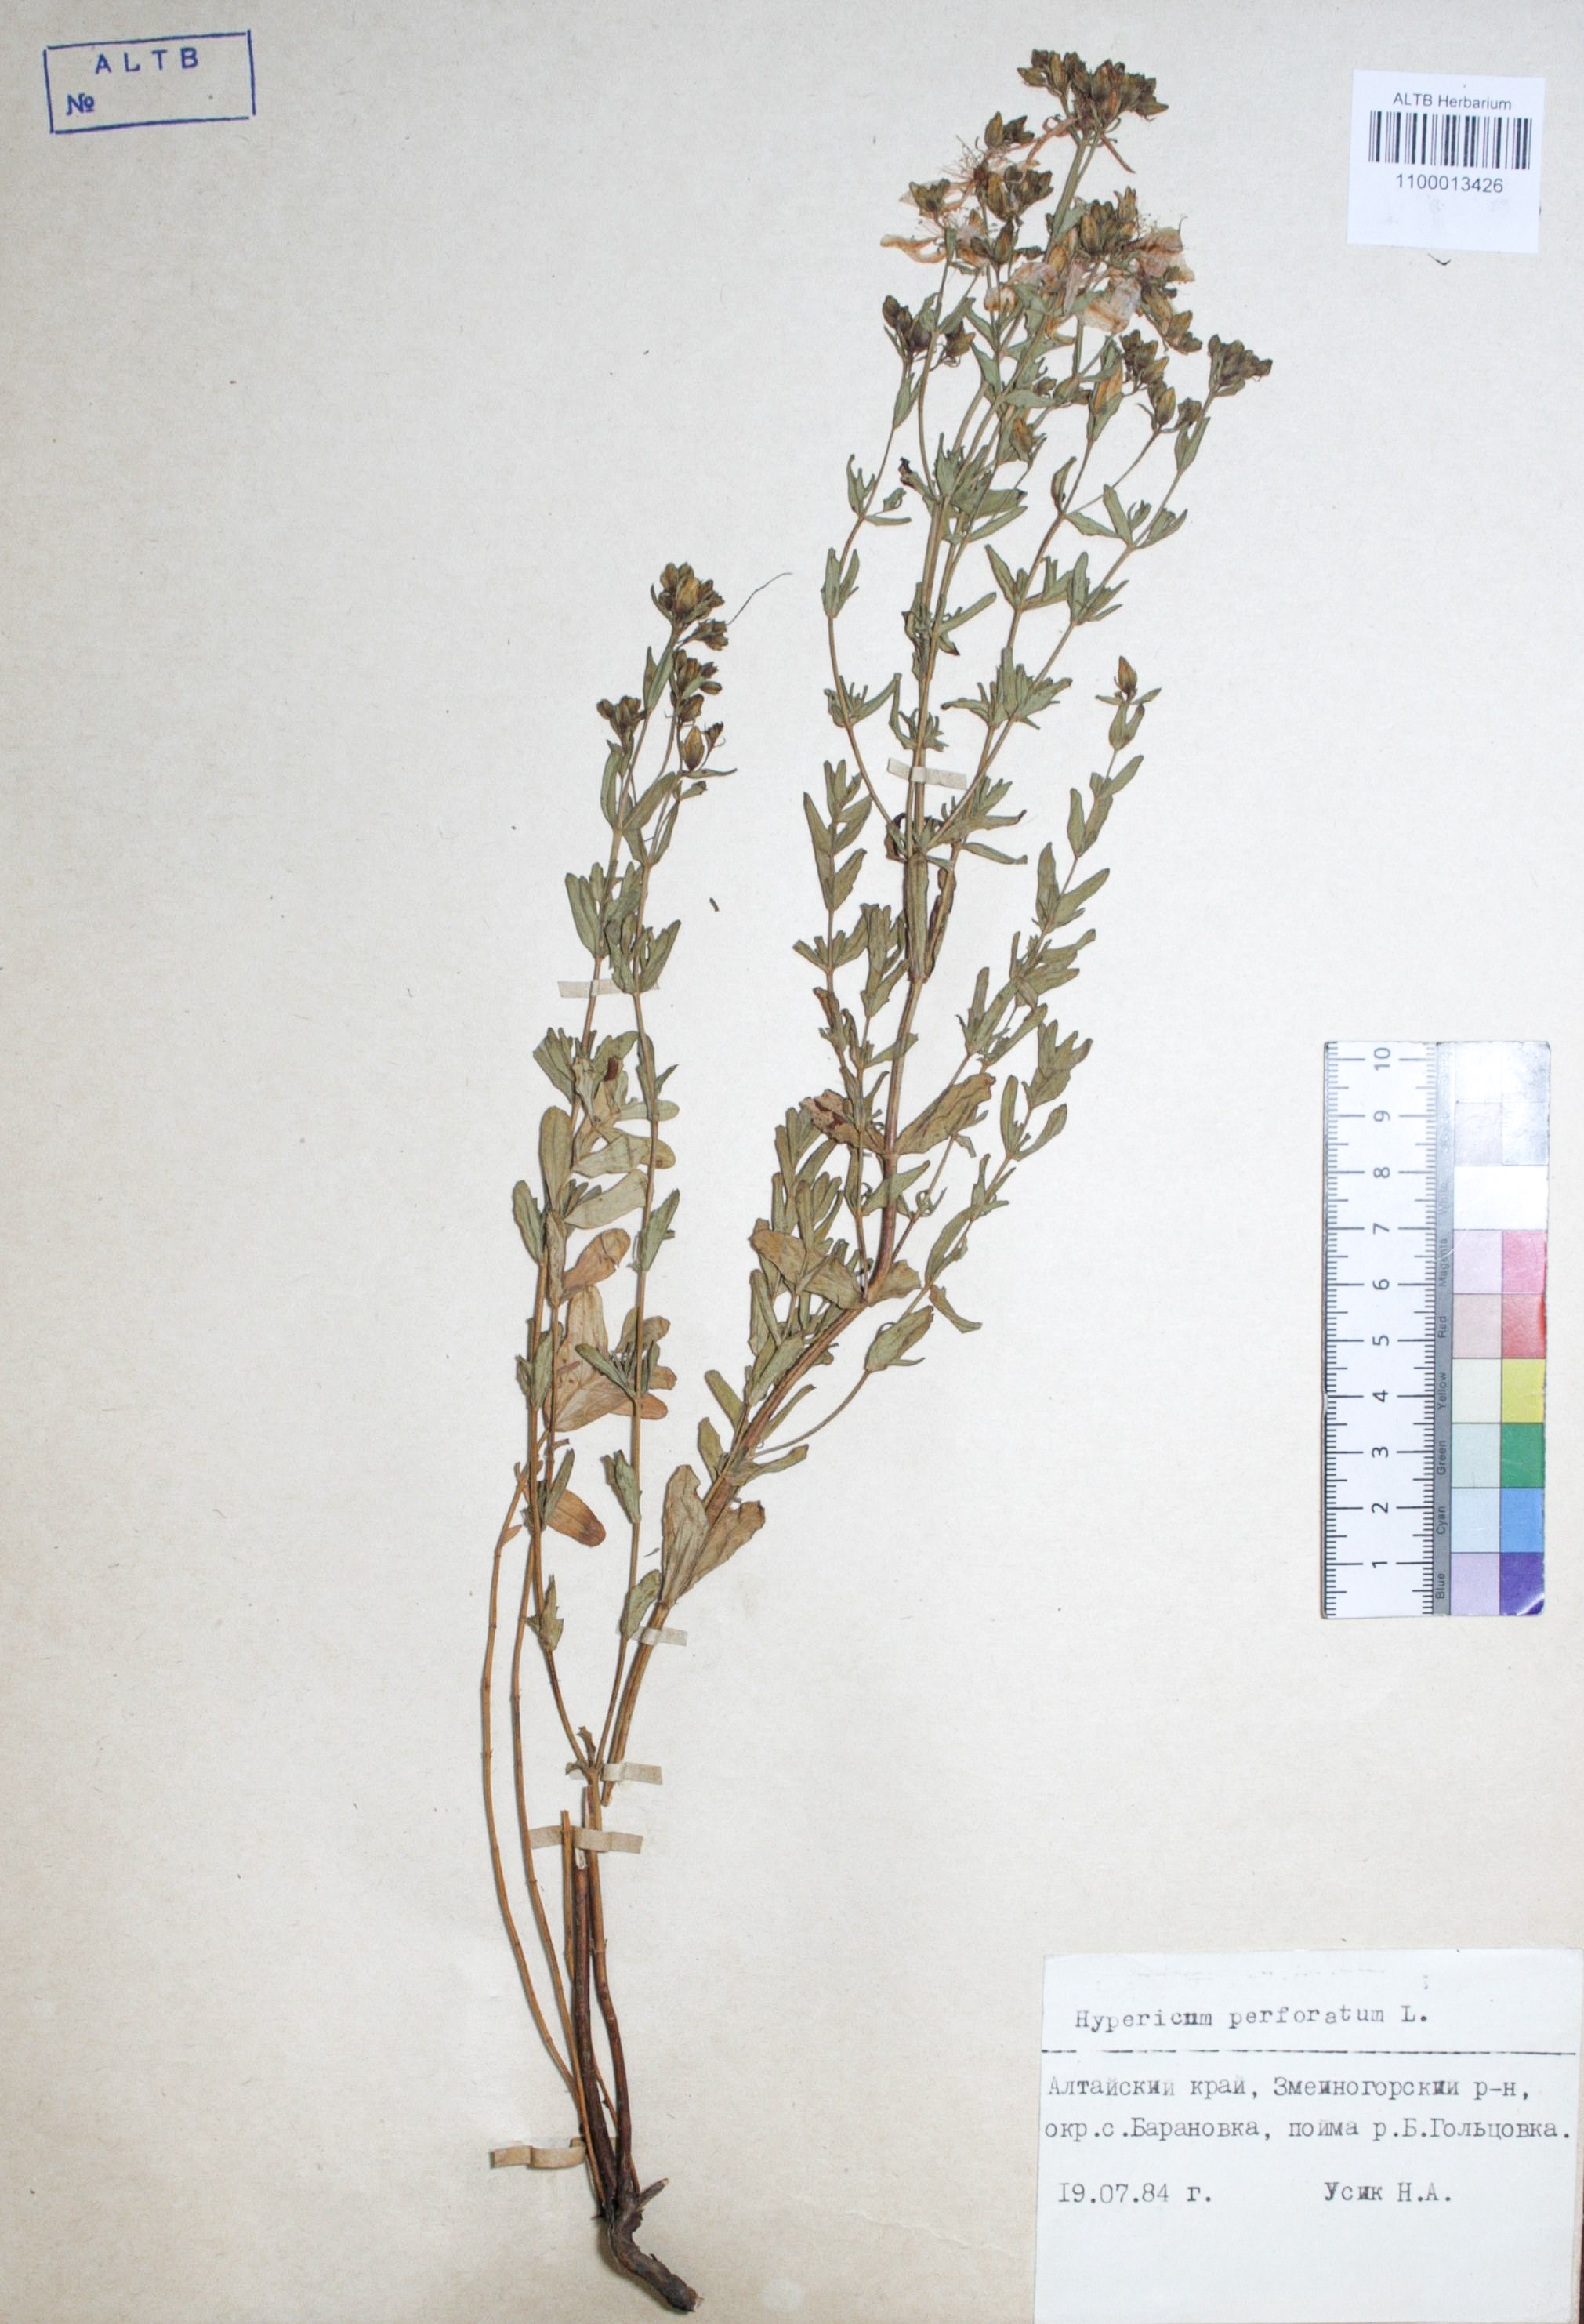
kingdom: Plantae
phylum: Tracheophyta
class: Magnoliopsida
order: Malpighiales
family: Hypericaceae
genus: Hypericum
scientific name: Hypericum perforatum
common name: Common st. johnswort
